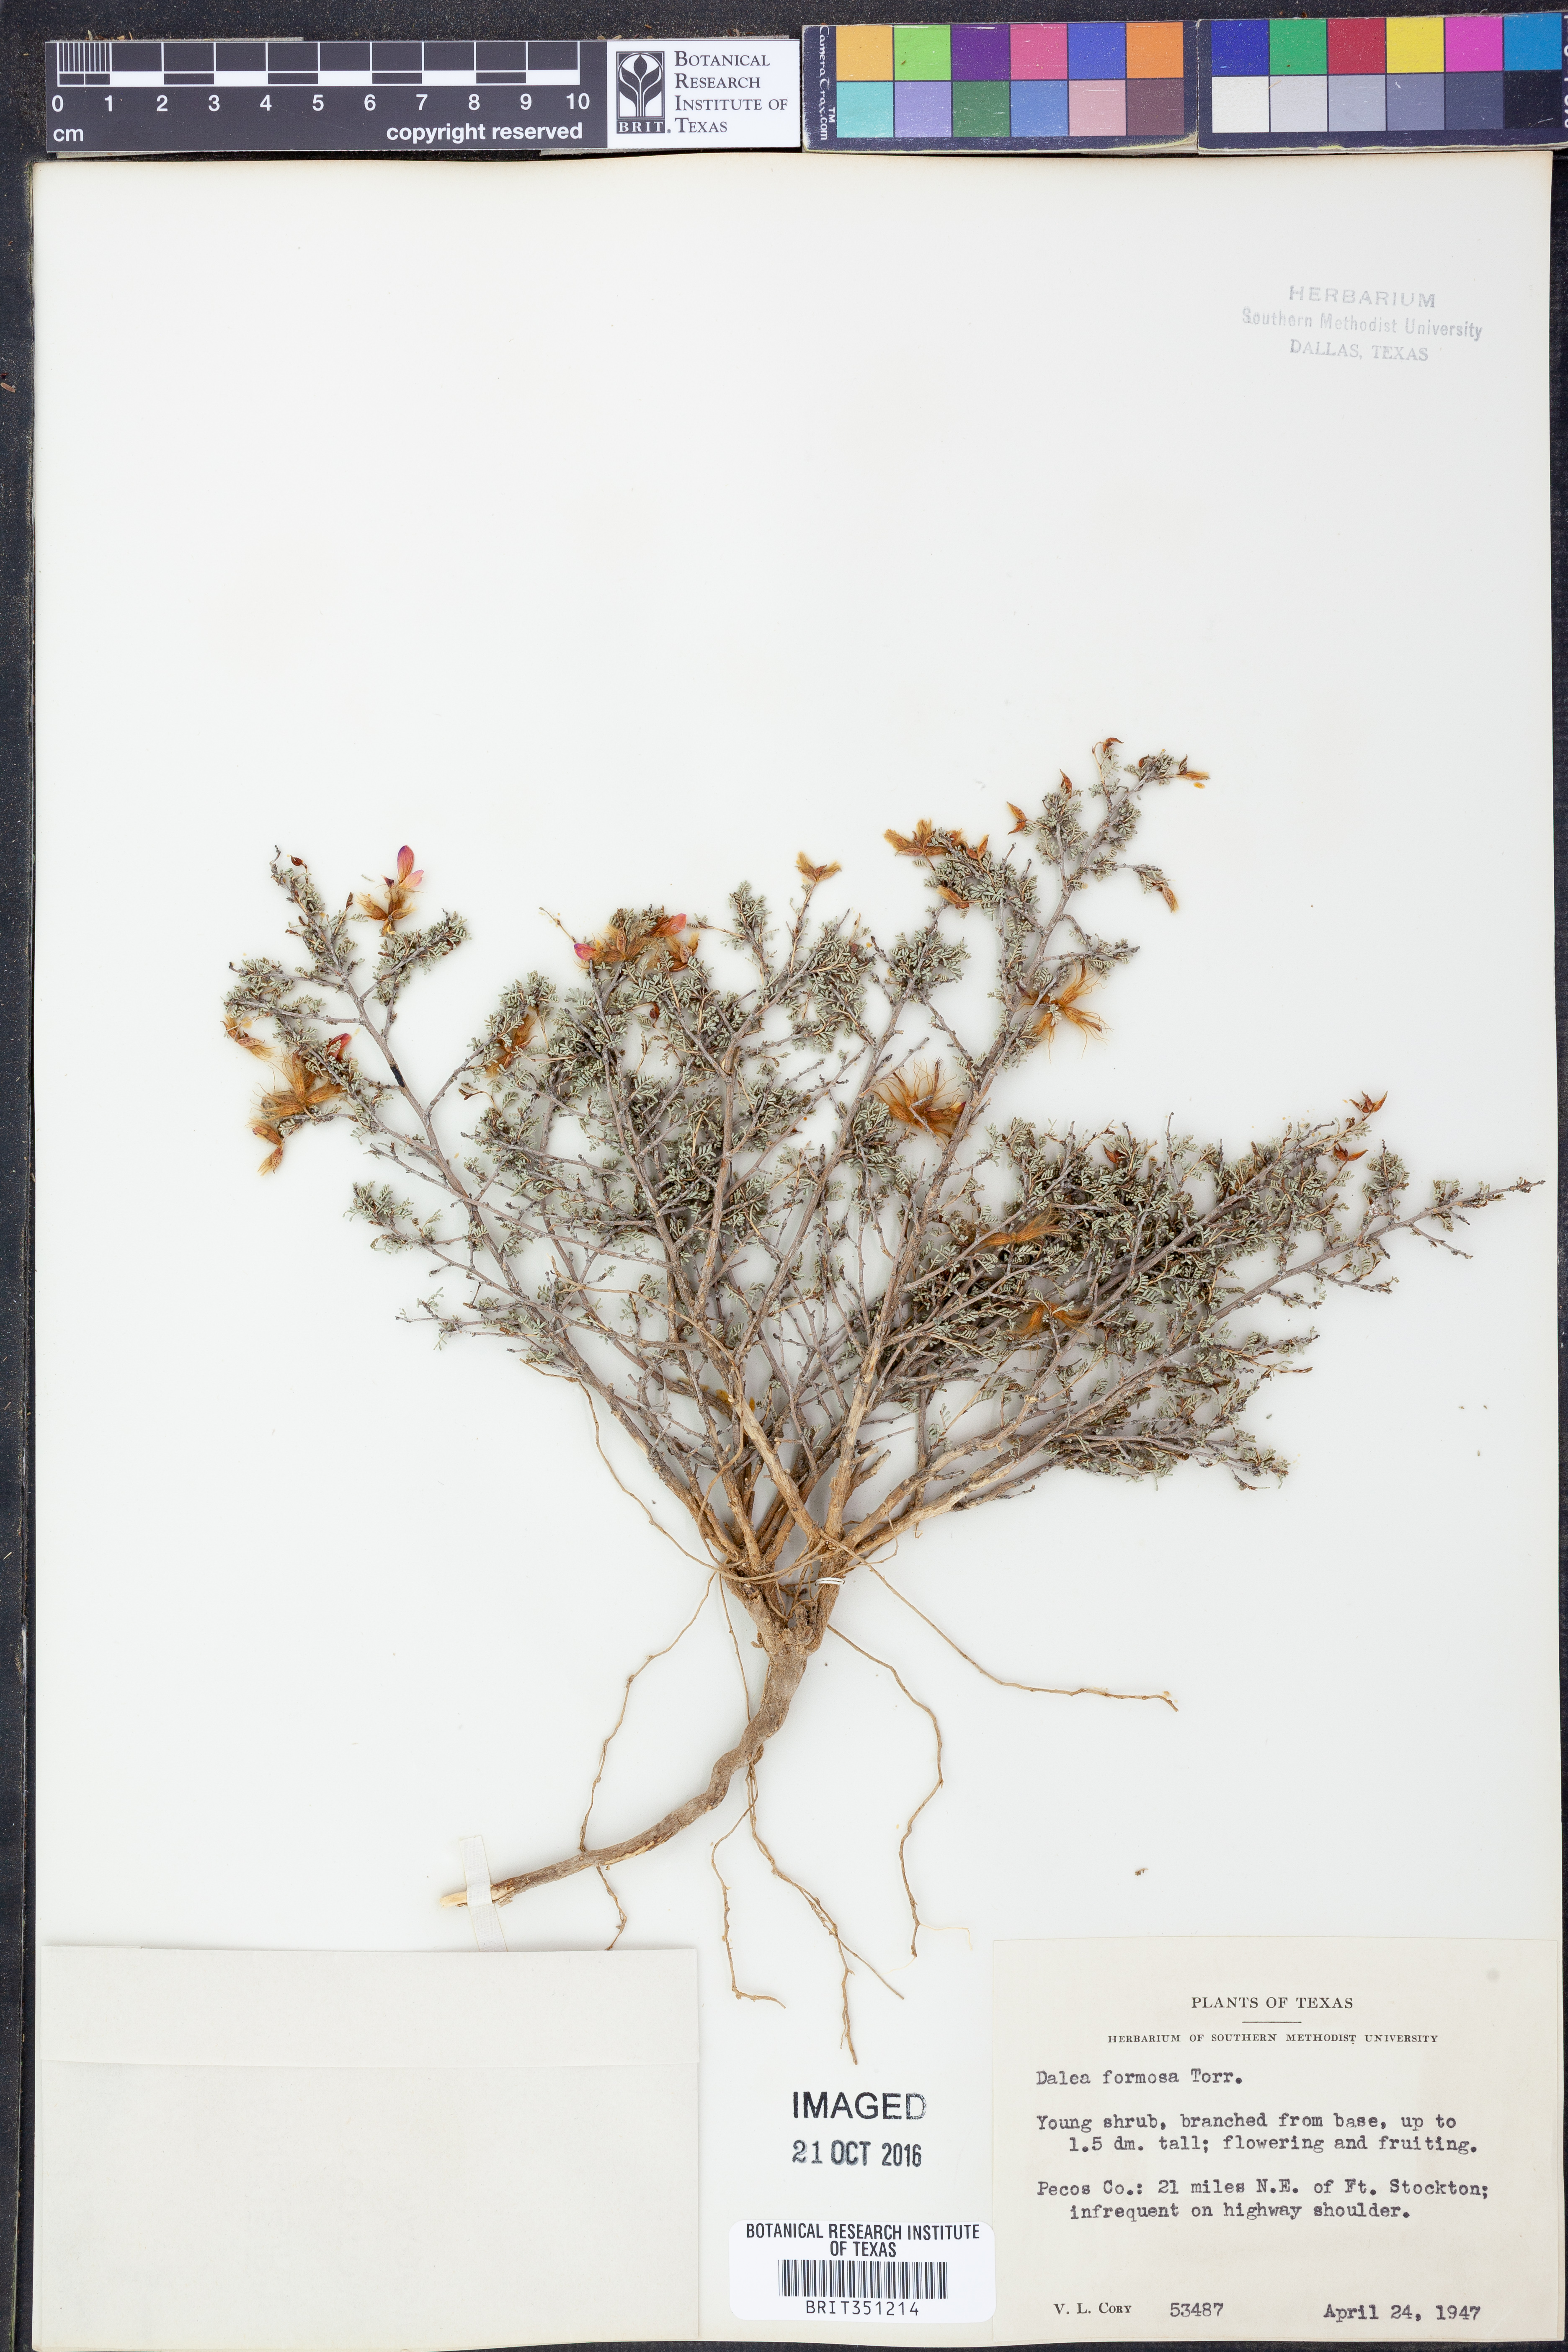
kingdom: Plantae
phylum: Tracheophyta
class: Magnoliopsida
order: Fabales
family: Fabaceae
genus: Dalea
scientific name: Dalea formosa
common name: Feather-plume dalea
